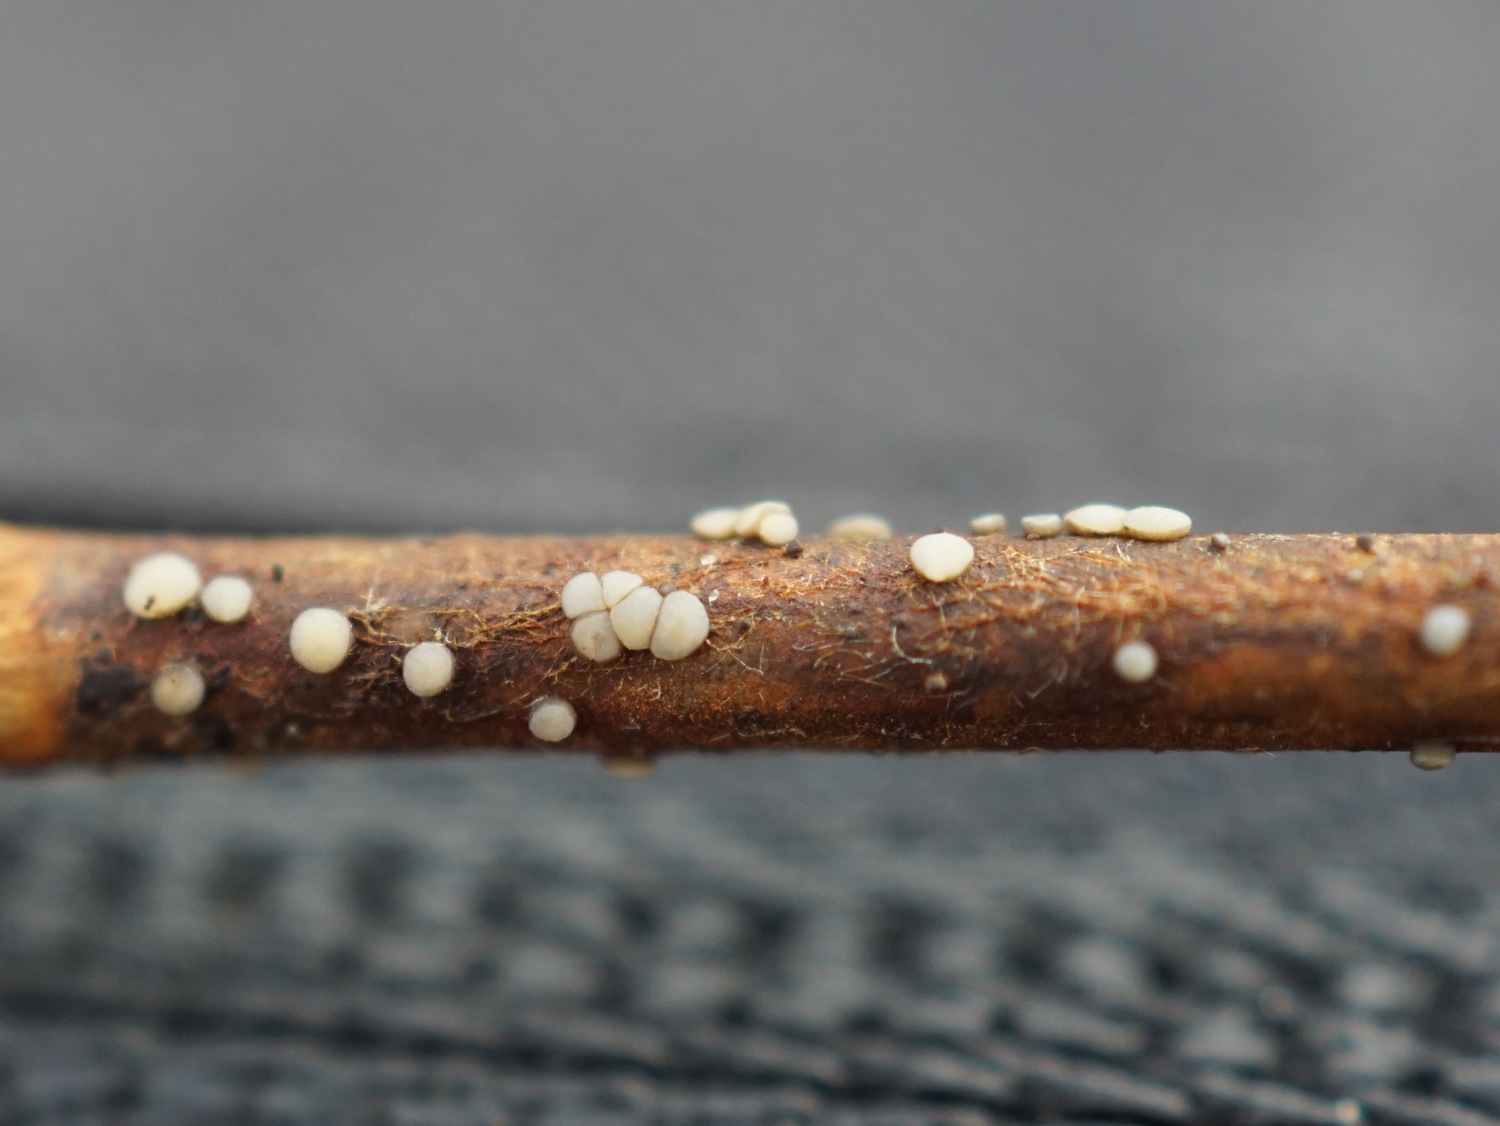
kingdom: Fungi
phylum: Ascomycota
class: Leotiomycetes
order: Helotiales
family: Ploettnerulaceae
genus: Belonium
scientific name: Belonium excelsior
